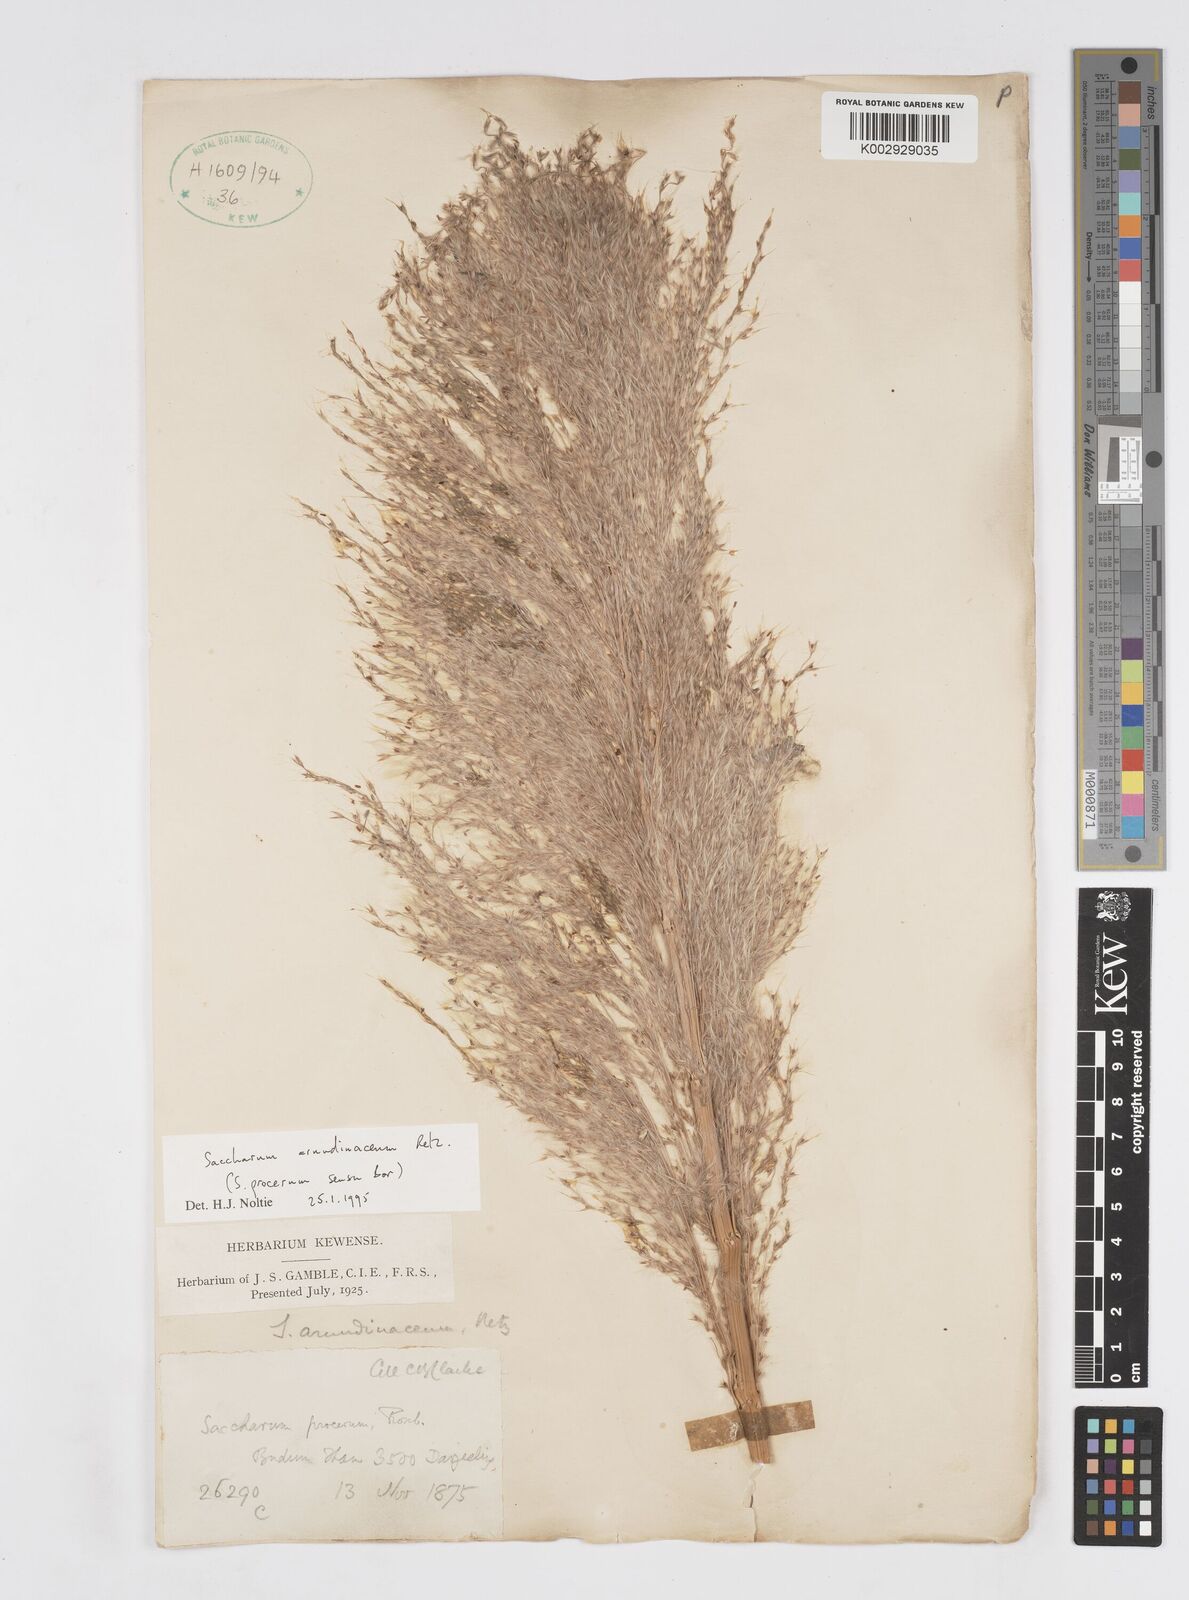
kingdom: Plantae
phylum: Tracheophyta
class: Liliopsida
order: Poales
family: Poaceae
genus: Tripidium
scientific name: Tripidium arundinaceum
